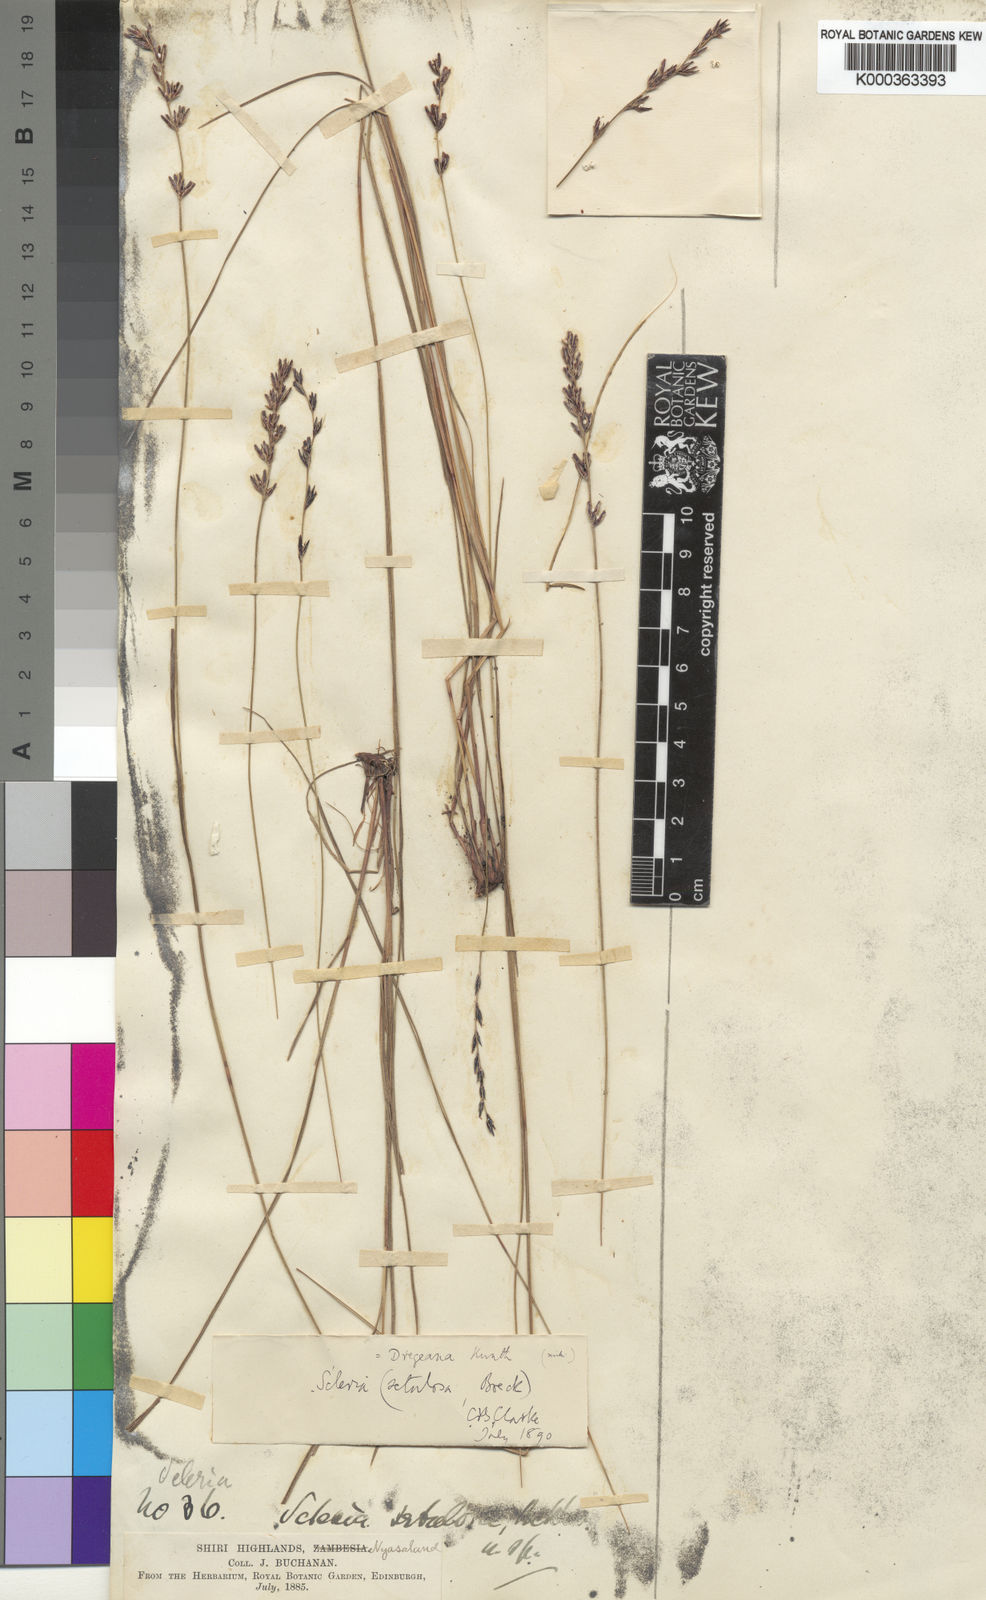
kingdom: Plantae
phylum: Tracheophyta
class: Liliopsida
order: Poales
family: Cyperaceae
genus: Scleria
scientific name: Scleria dregeana
